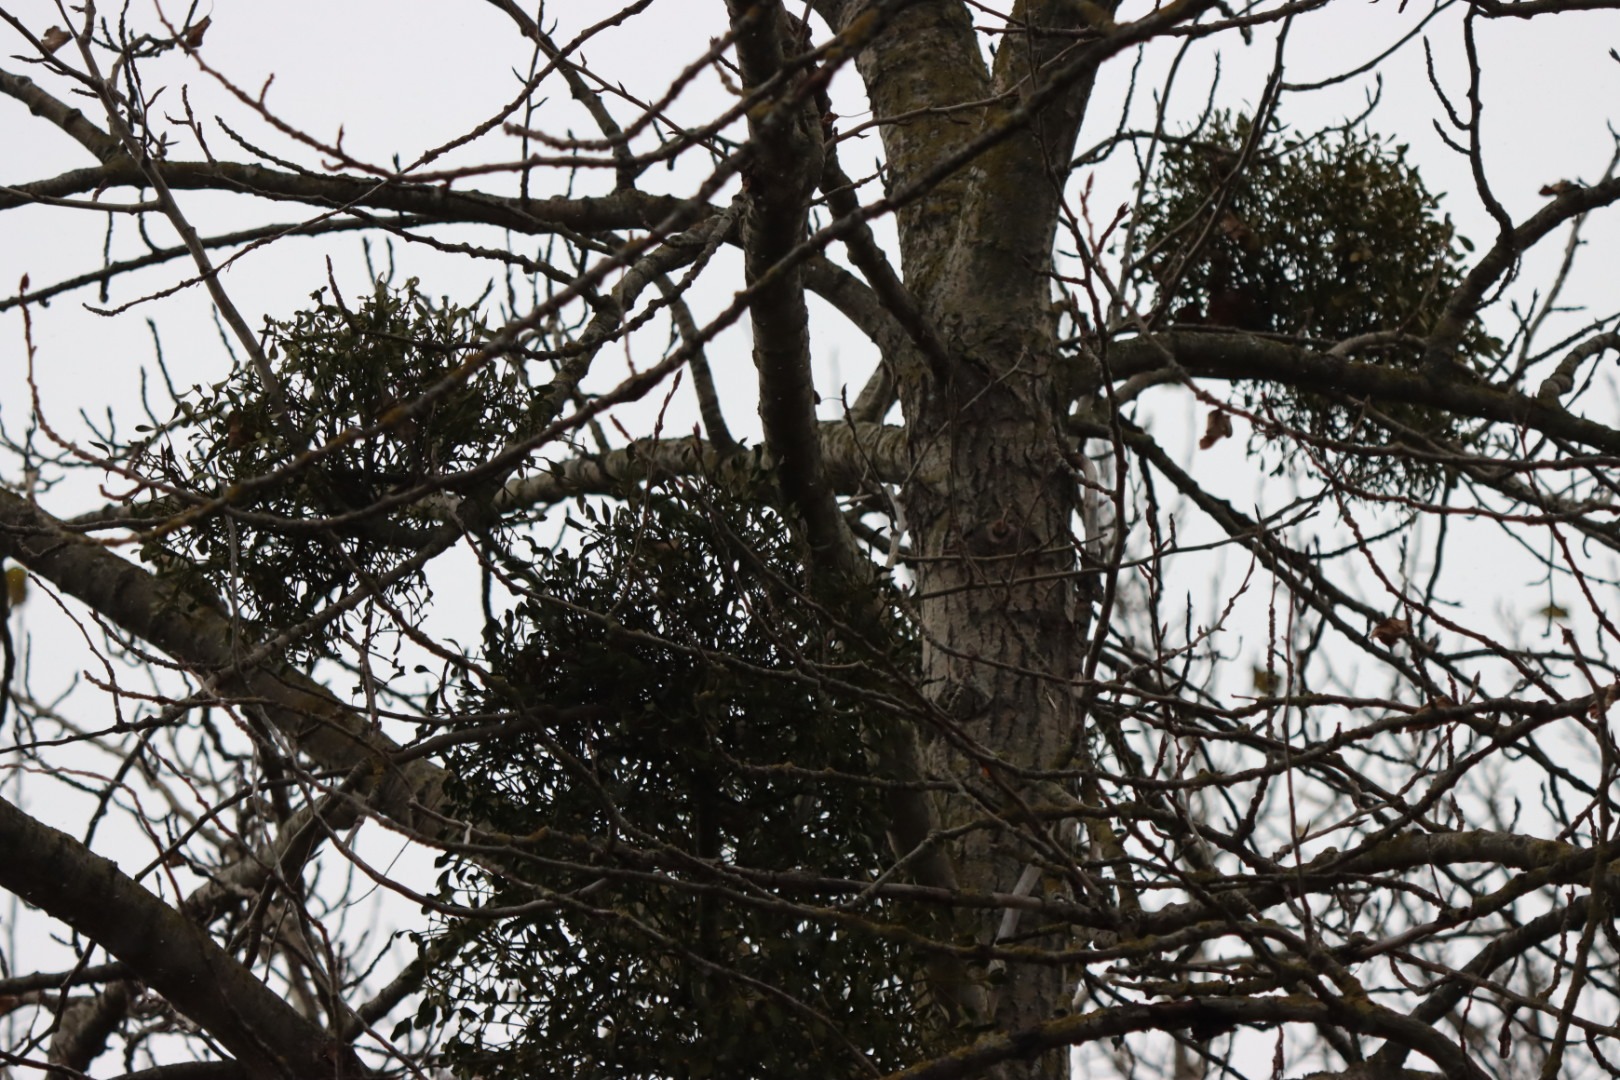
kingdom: Plantae
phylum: Tracheophyta
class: Magnoliopsida
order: Santalales
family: Viscaceae
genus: Viscum
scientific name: Viscum album
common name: Mistelten
